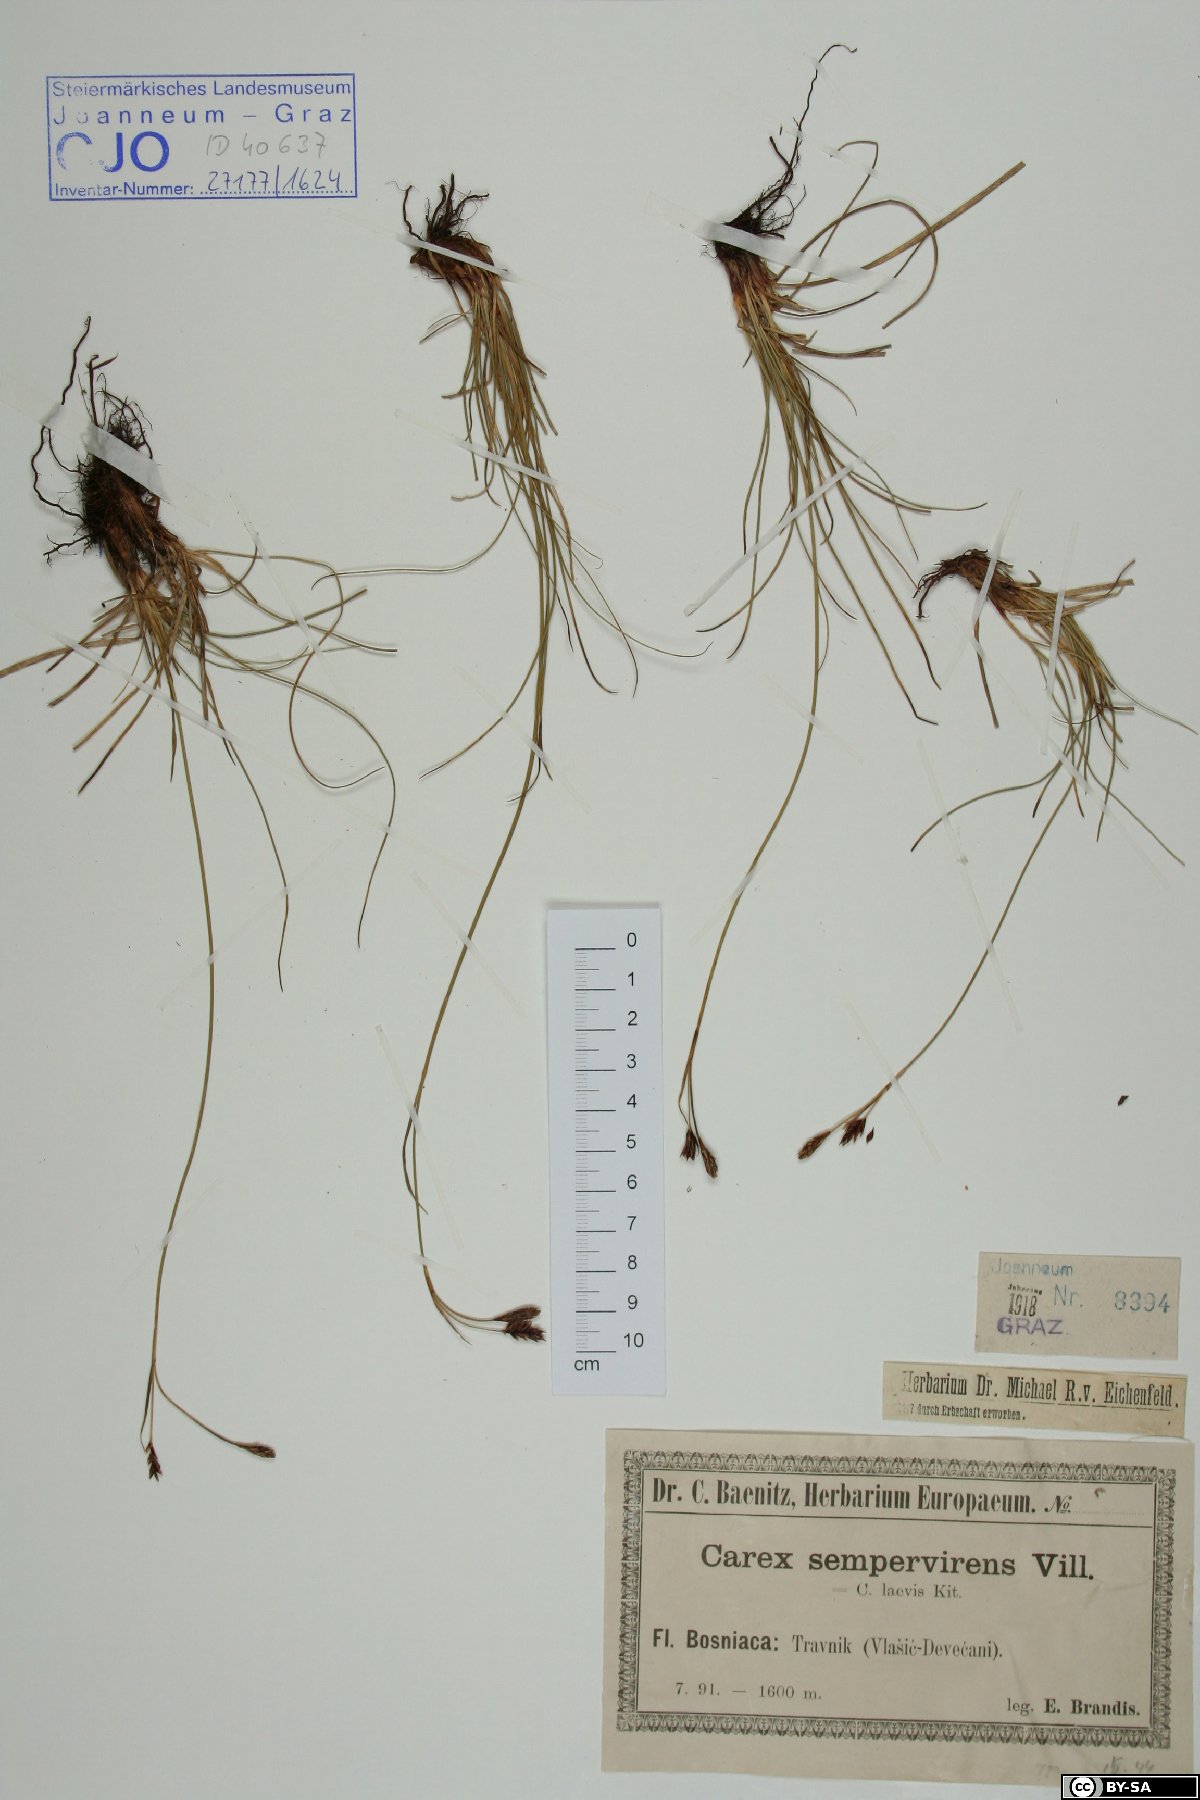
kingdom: Plantae
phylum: Tracheophyta
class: Liliopsida
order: Poales
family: Cyperaceae
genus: Carex
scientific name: Carex sempervirens
